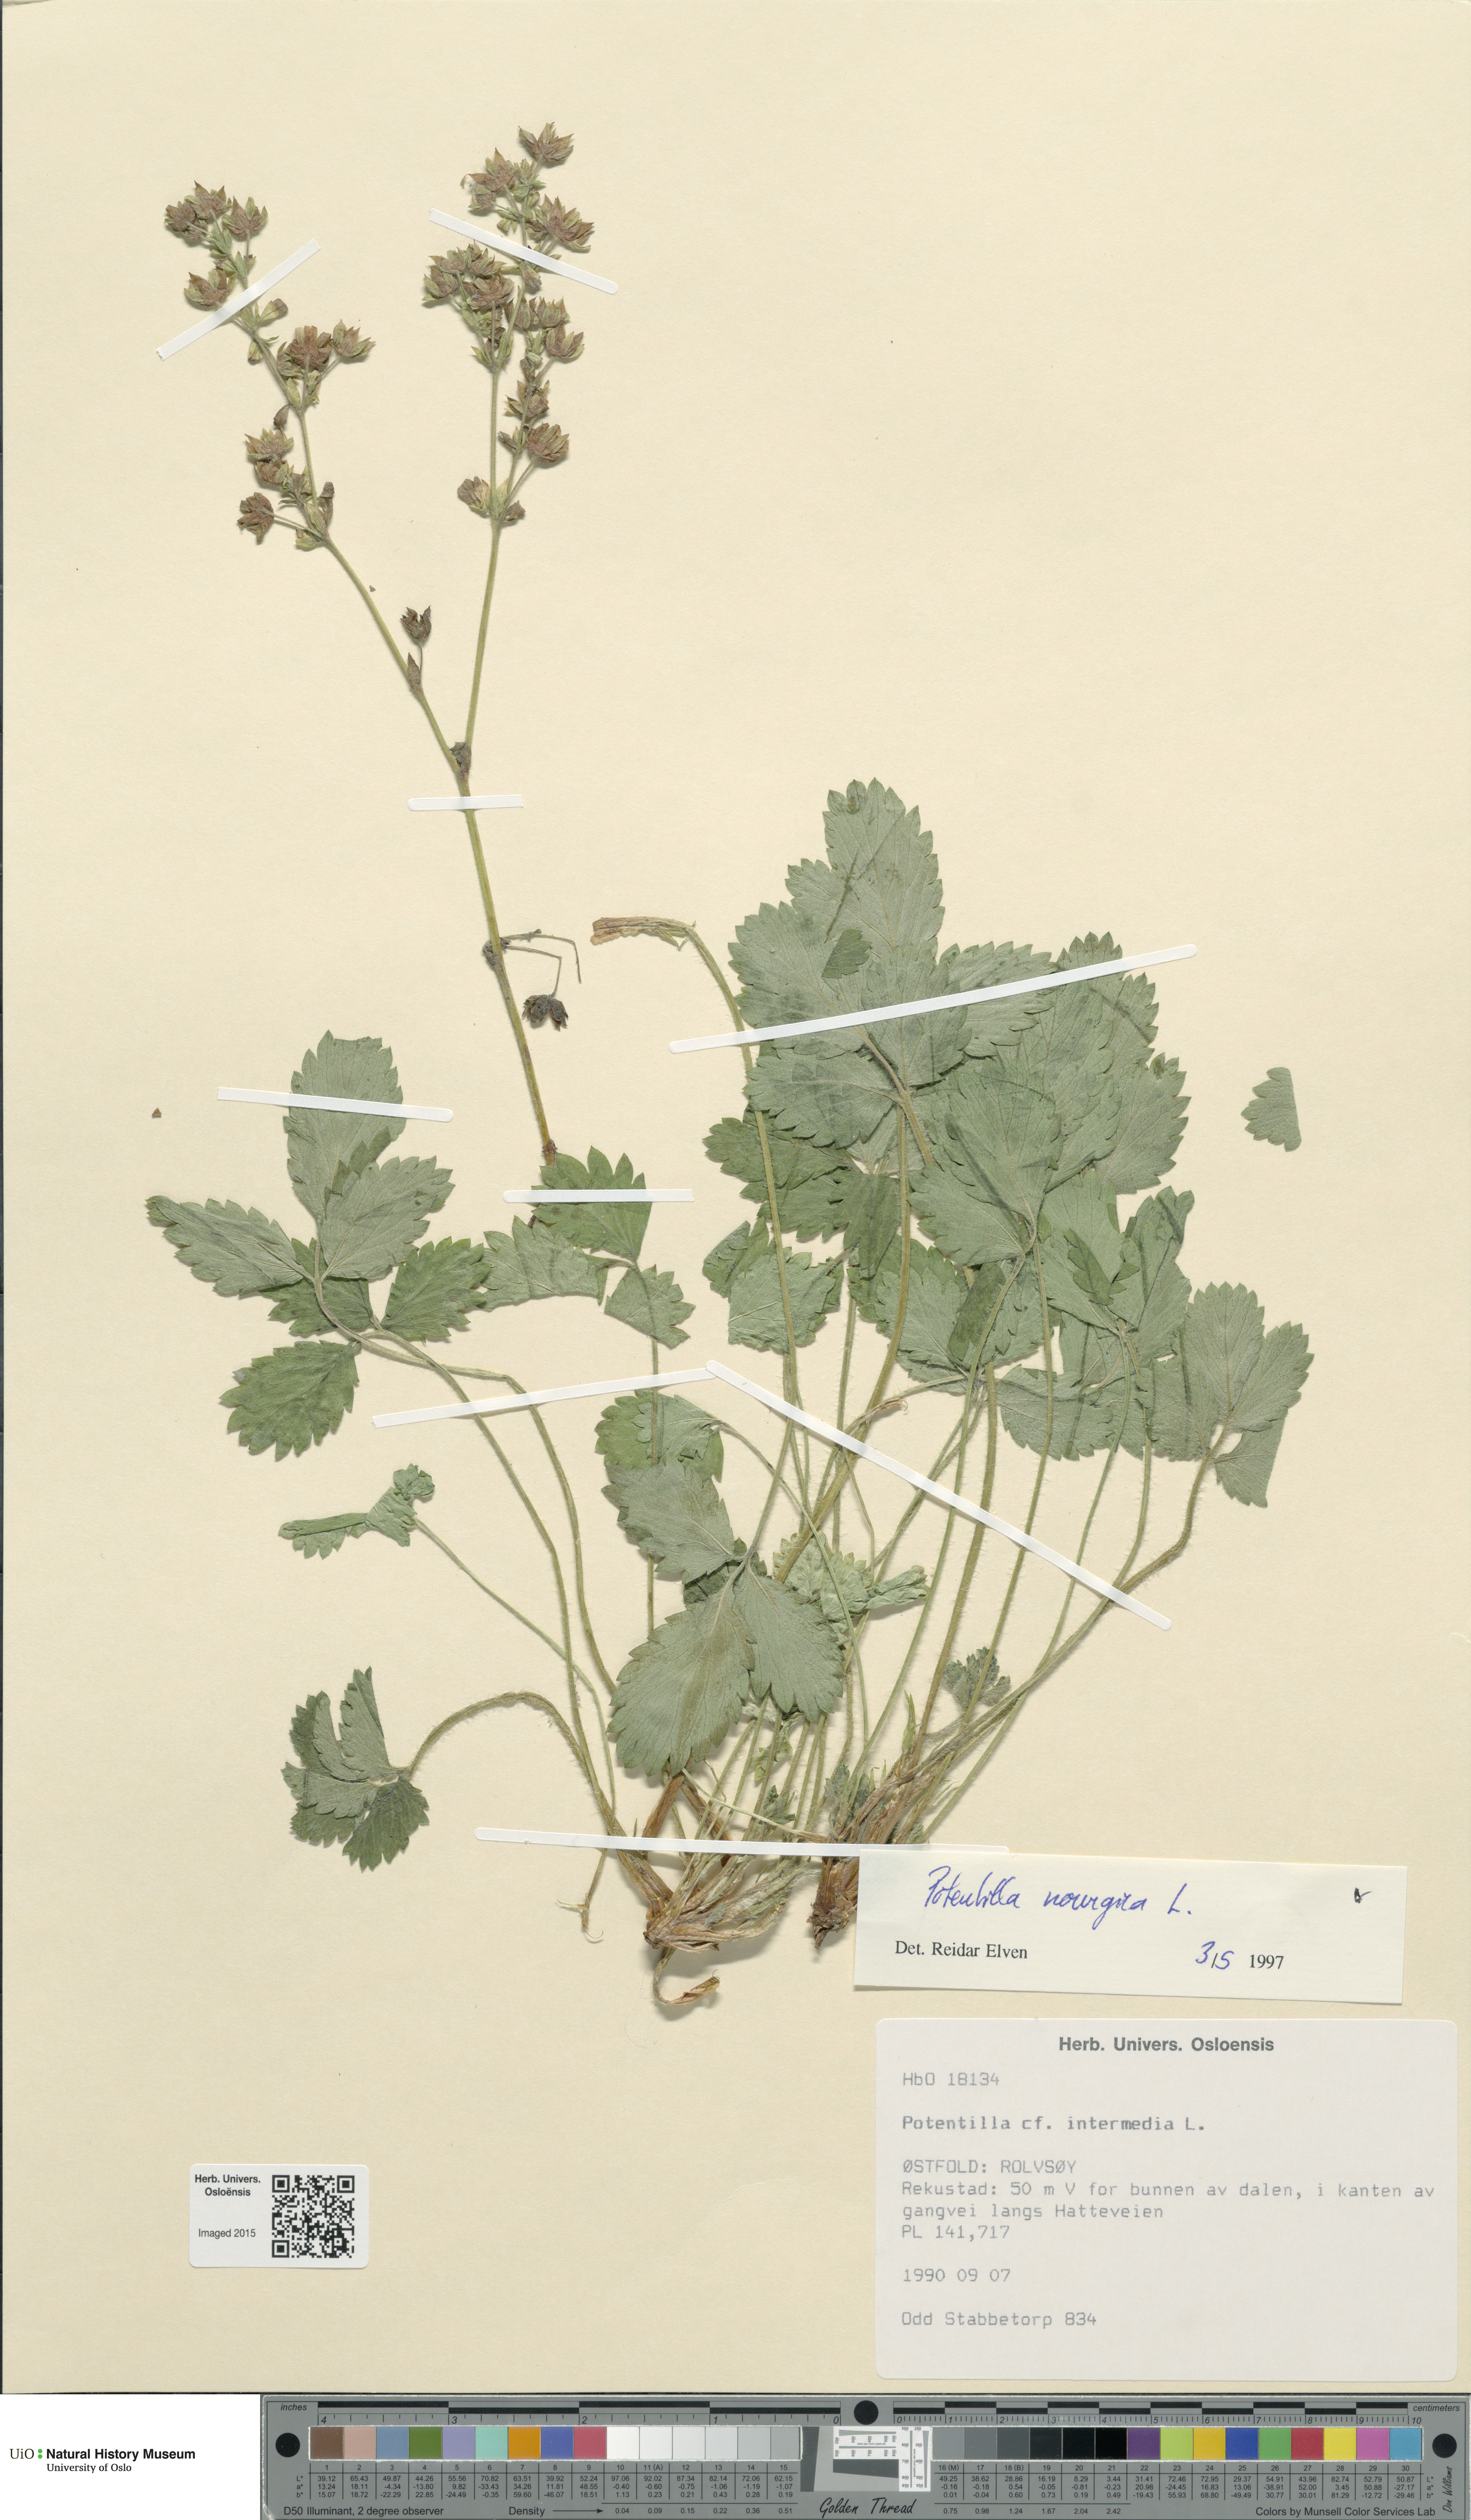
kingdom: Plantae
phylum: Tracheophyta
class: Magnoliopsida
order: Rosales
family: Rosaceae
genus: Potentilla
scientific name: Potentilla norvegica
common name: Ternate-leaved cinquefoil
